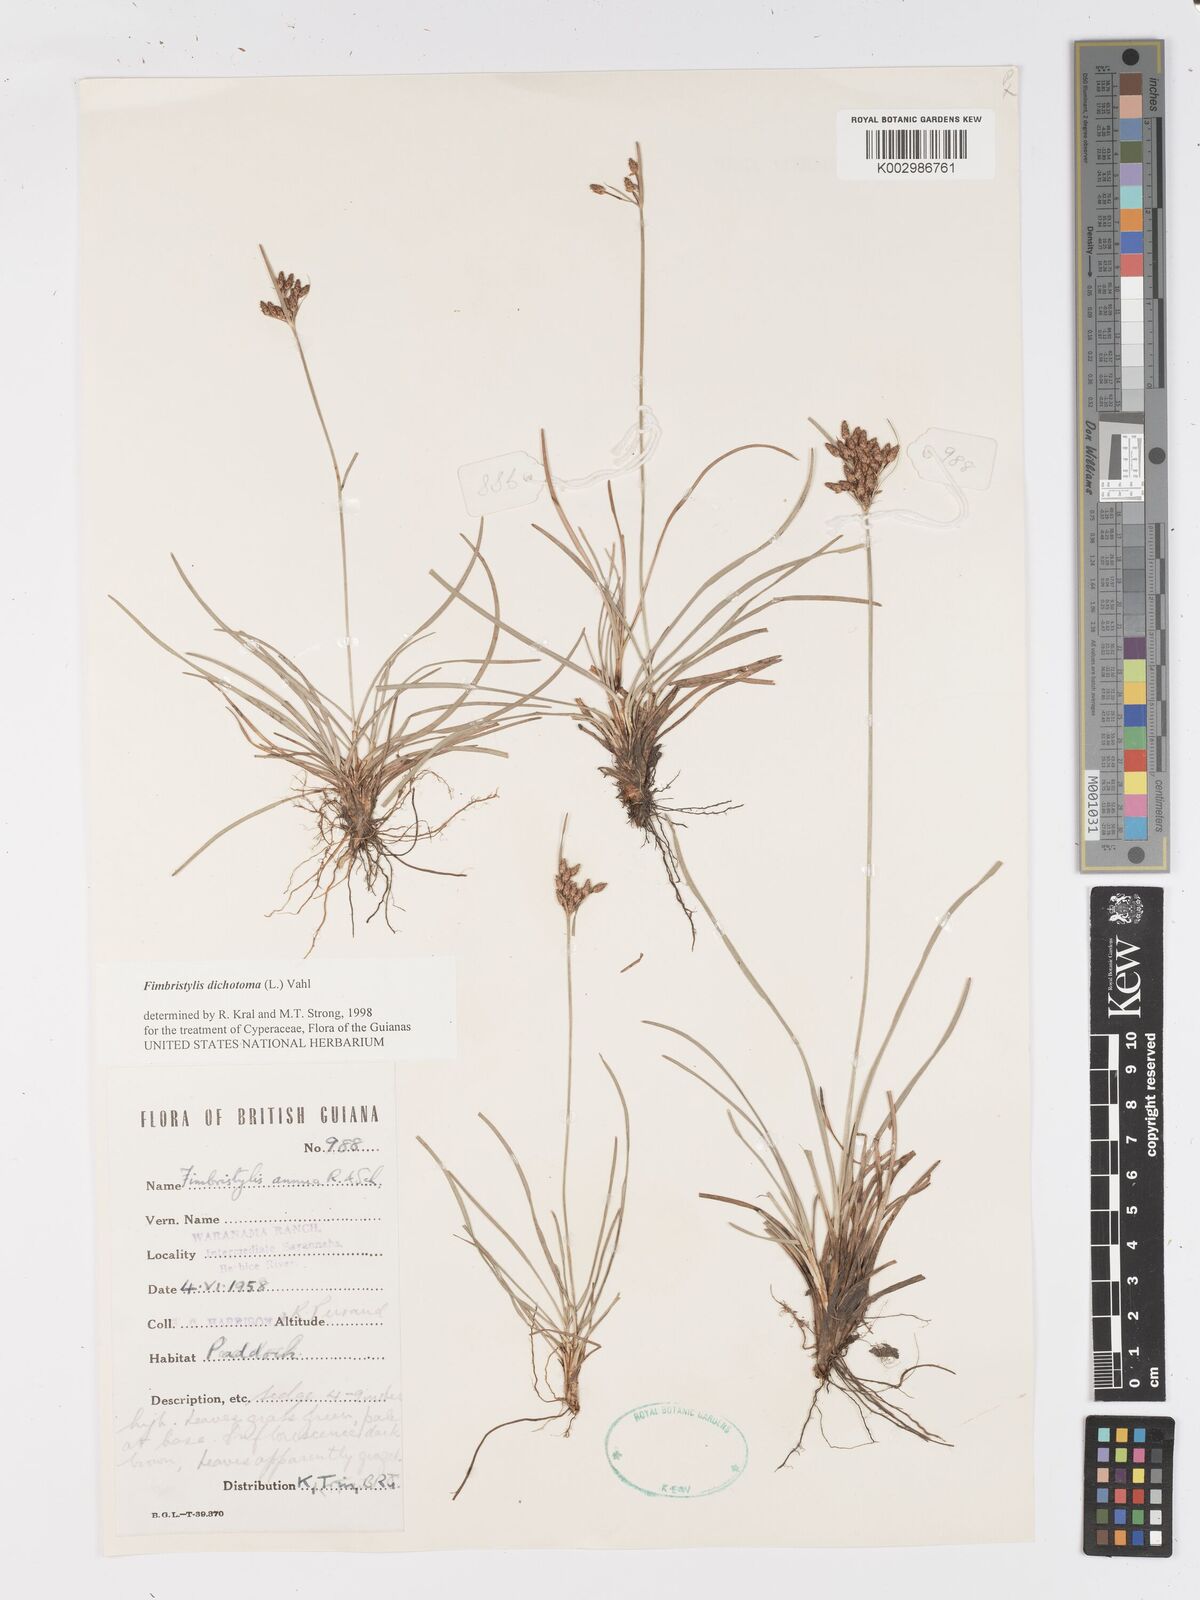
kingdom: Plantae
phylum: Tracheophyta
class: Liliopsida
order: Poales
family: Cyperaceae
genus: Fimbristylis
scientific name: Fimbristylis dichotoma
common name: Forked fimbry
